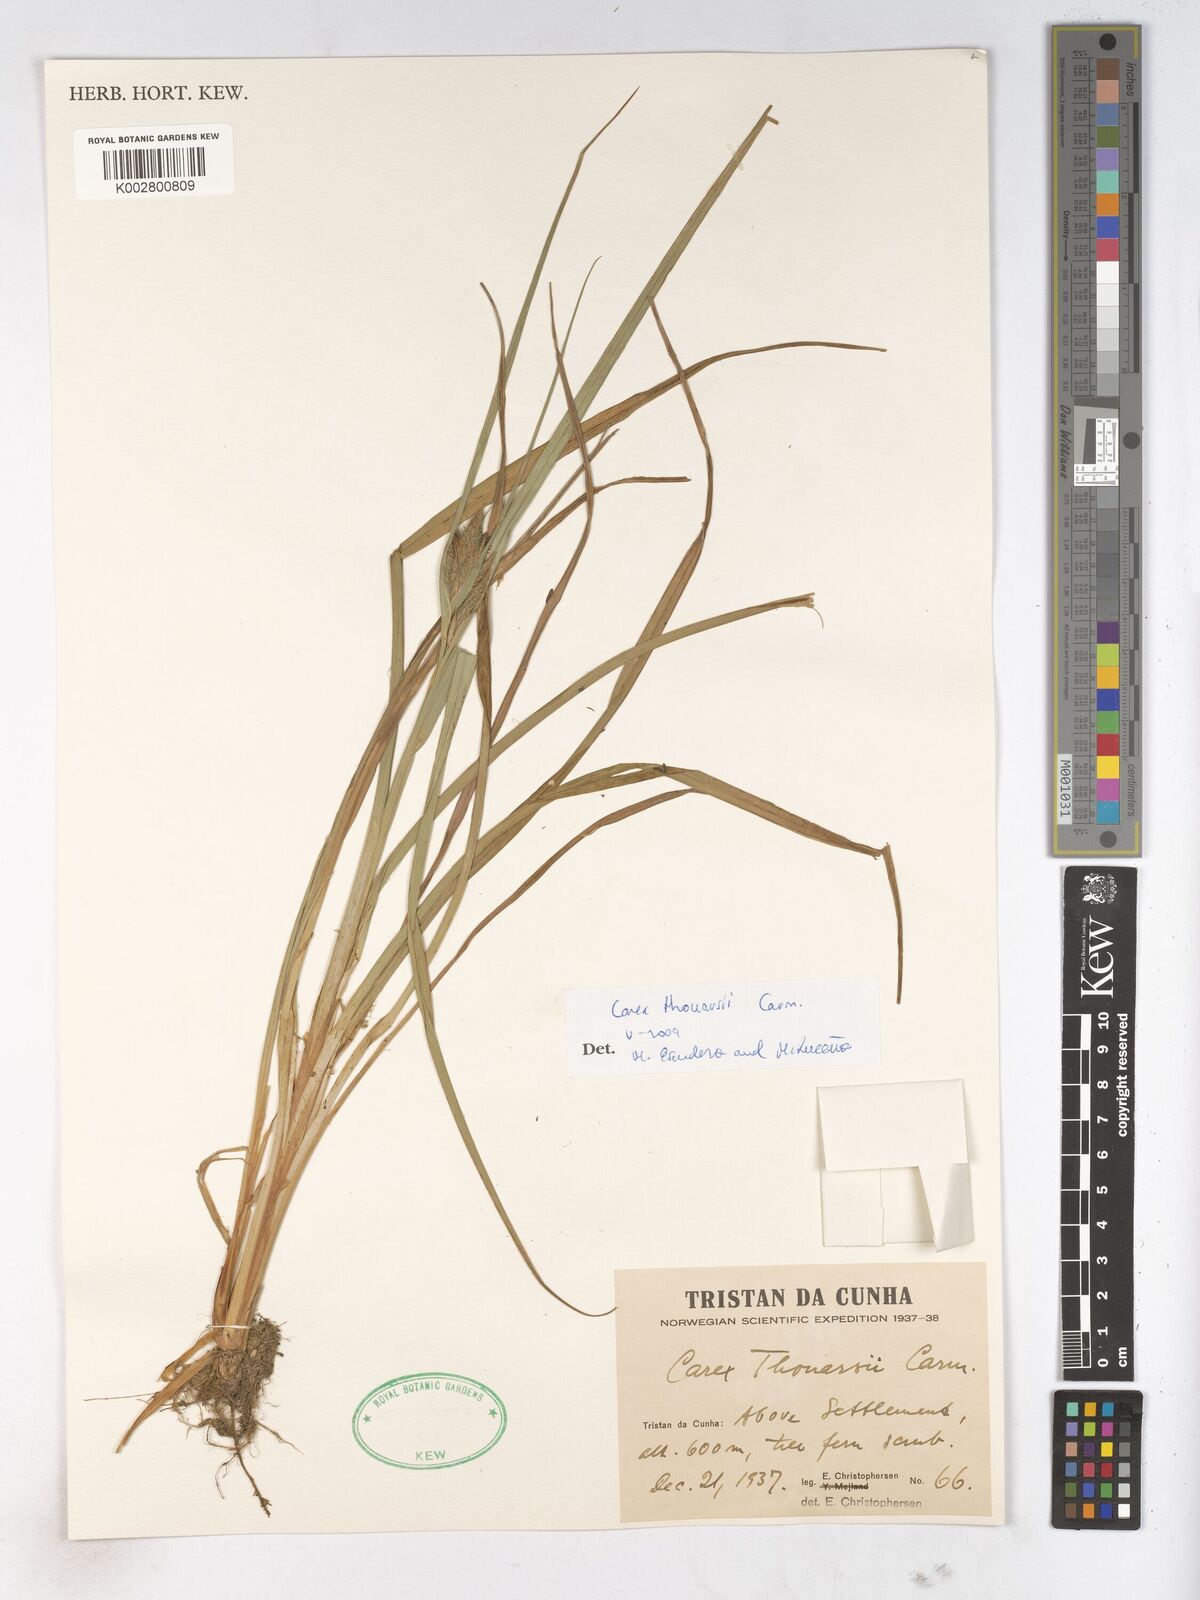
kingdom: Plantae
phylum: Tracheophyta
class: Liliopsida
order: Poales
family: Cyperaceae
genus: Carex
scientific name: Carex thouarsii
